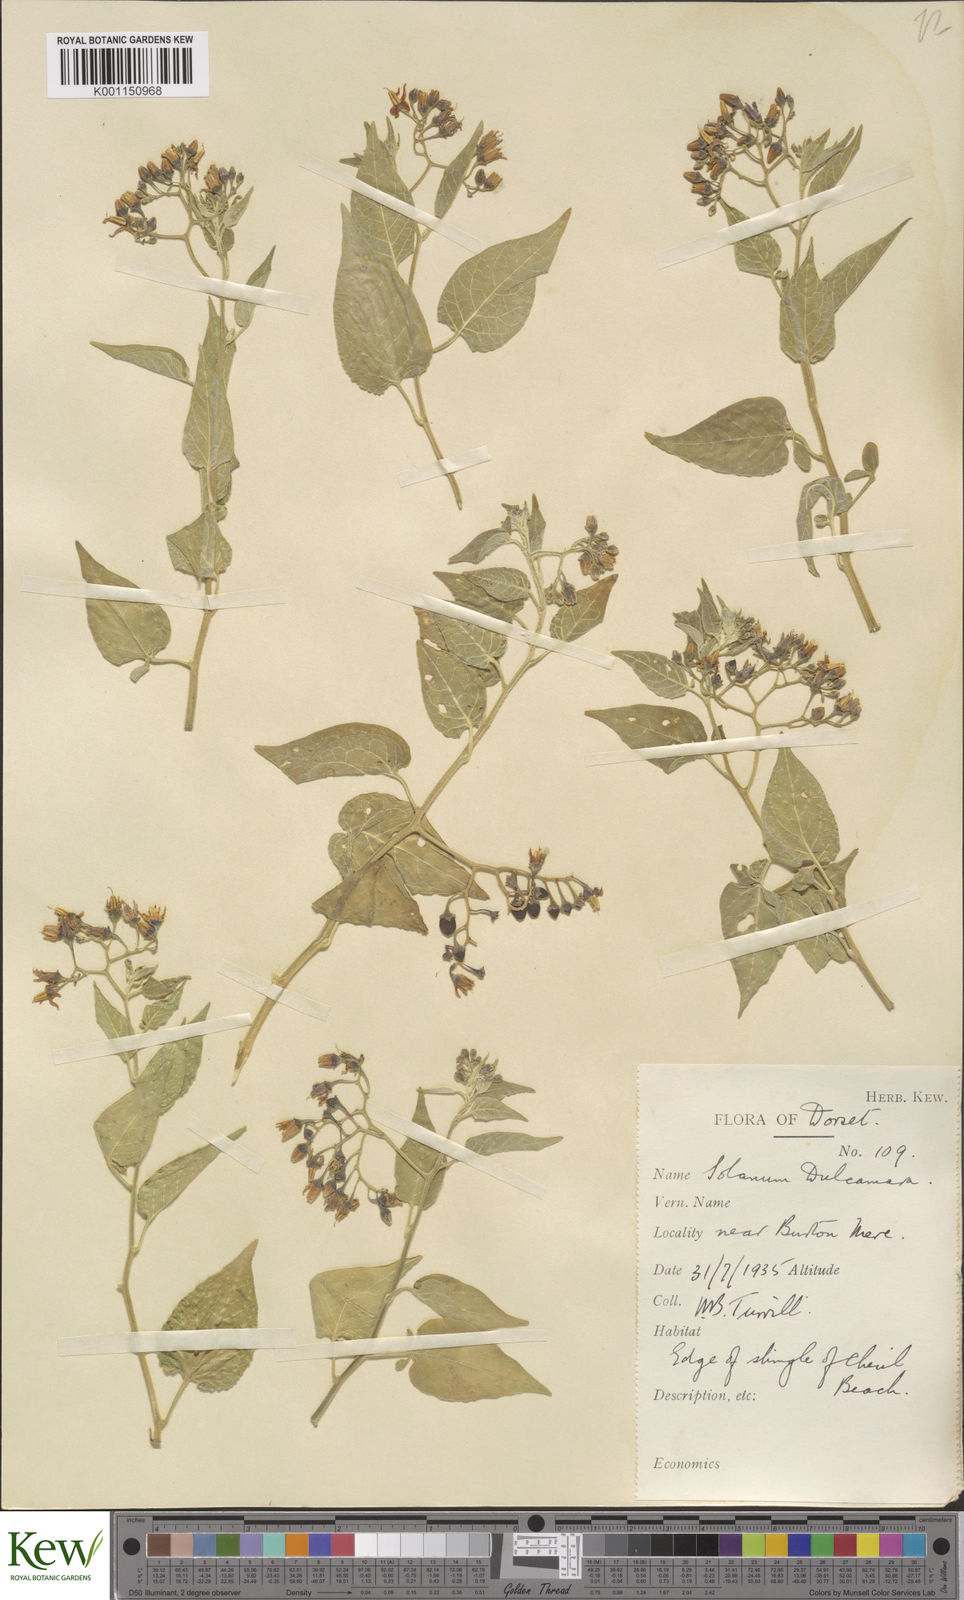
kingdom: Plantae
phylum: Tracheophyta
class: Magnoliopsida
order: Solanales
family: Solanaceae
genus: Solanum
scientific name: Solanum dulcamara
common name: Climbing nightshade
